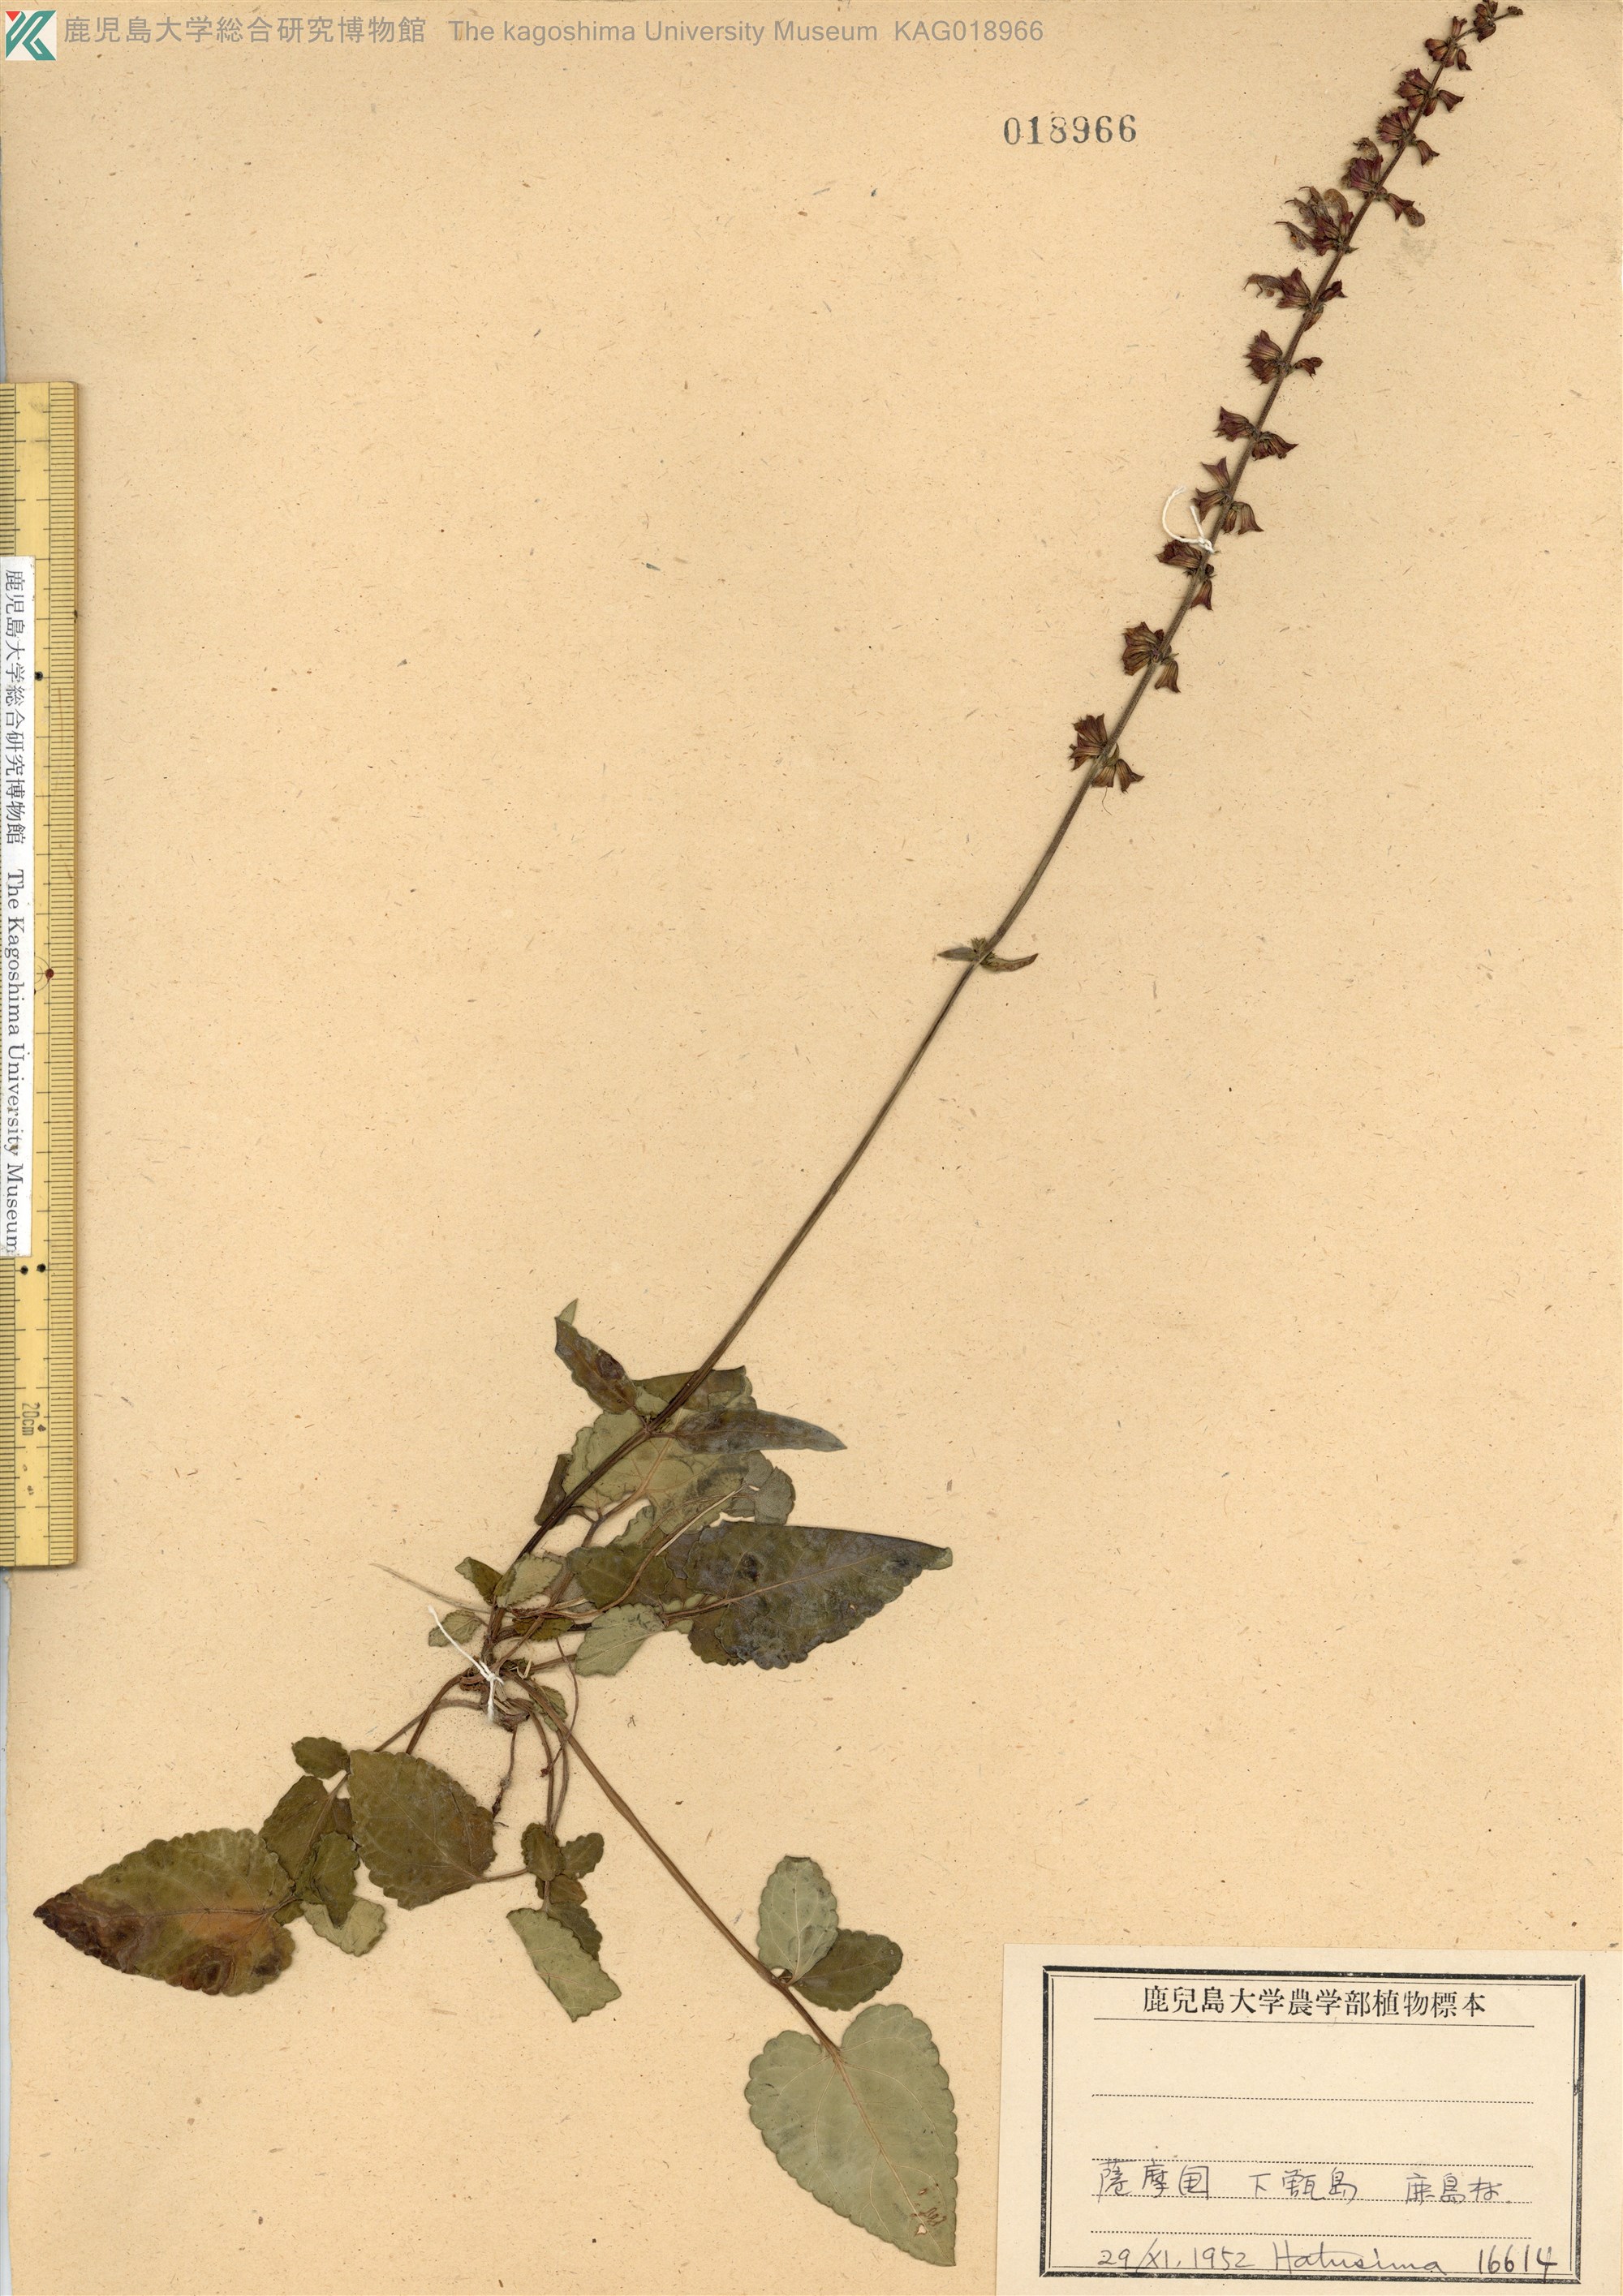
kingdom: Plantae
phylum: Tracheophyta
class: Magnoliopsida
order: Lamiales
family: Lamiaceae
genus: Salvia
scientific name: Salvia japonica
